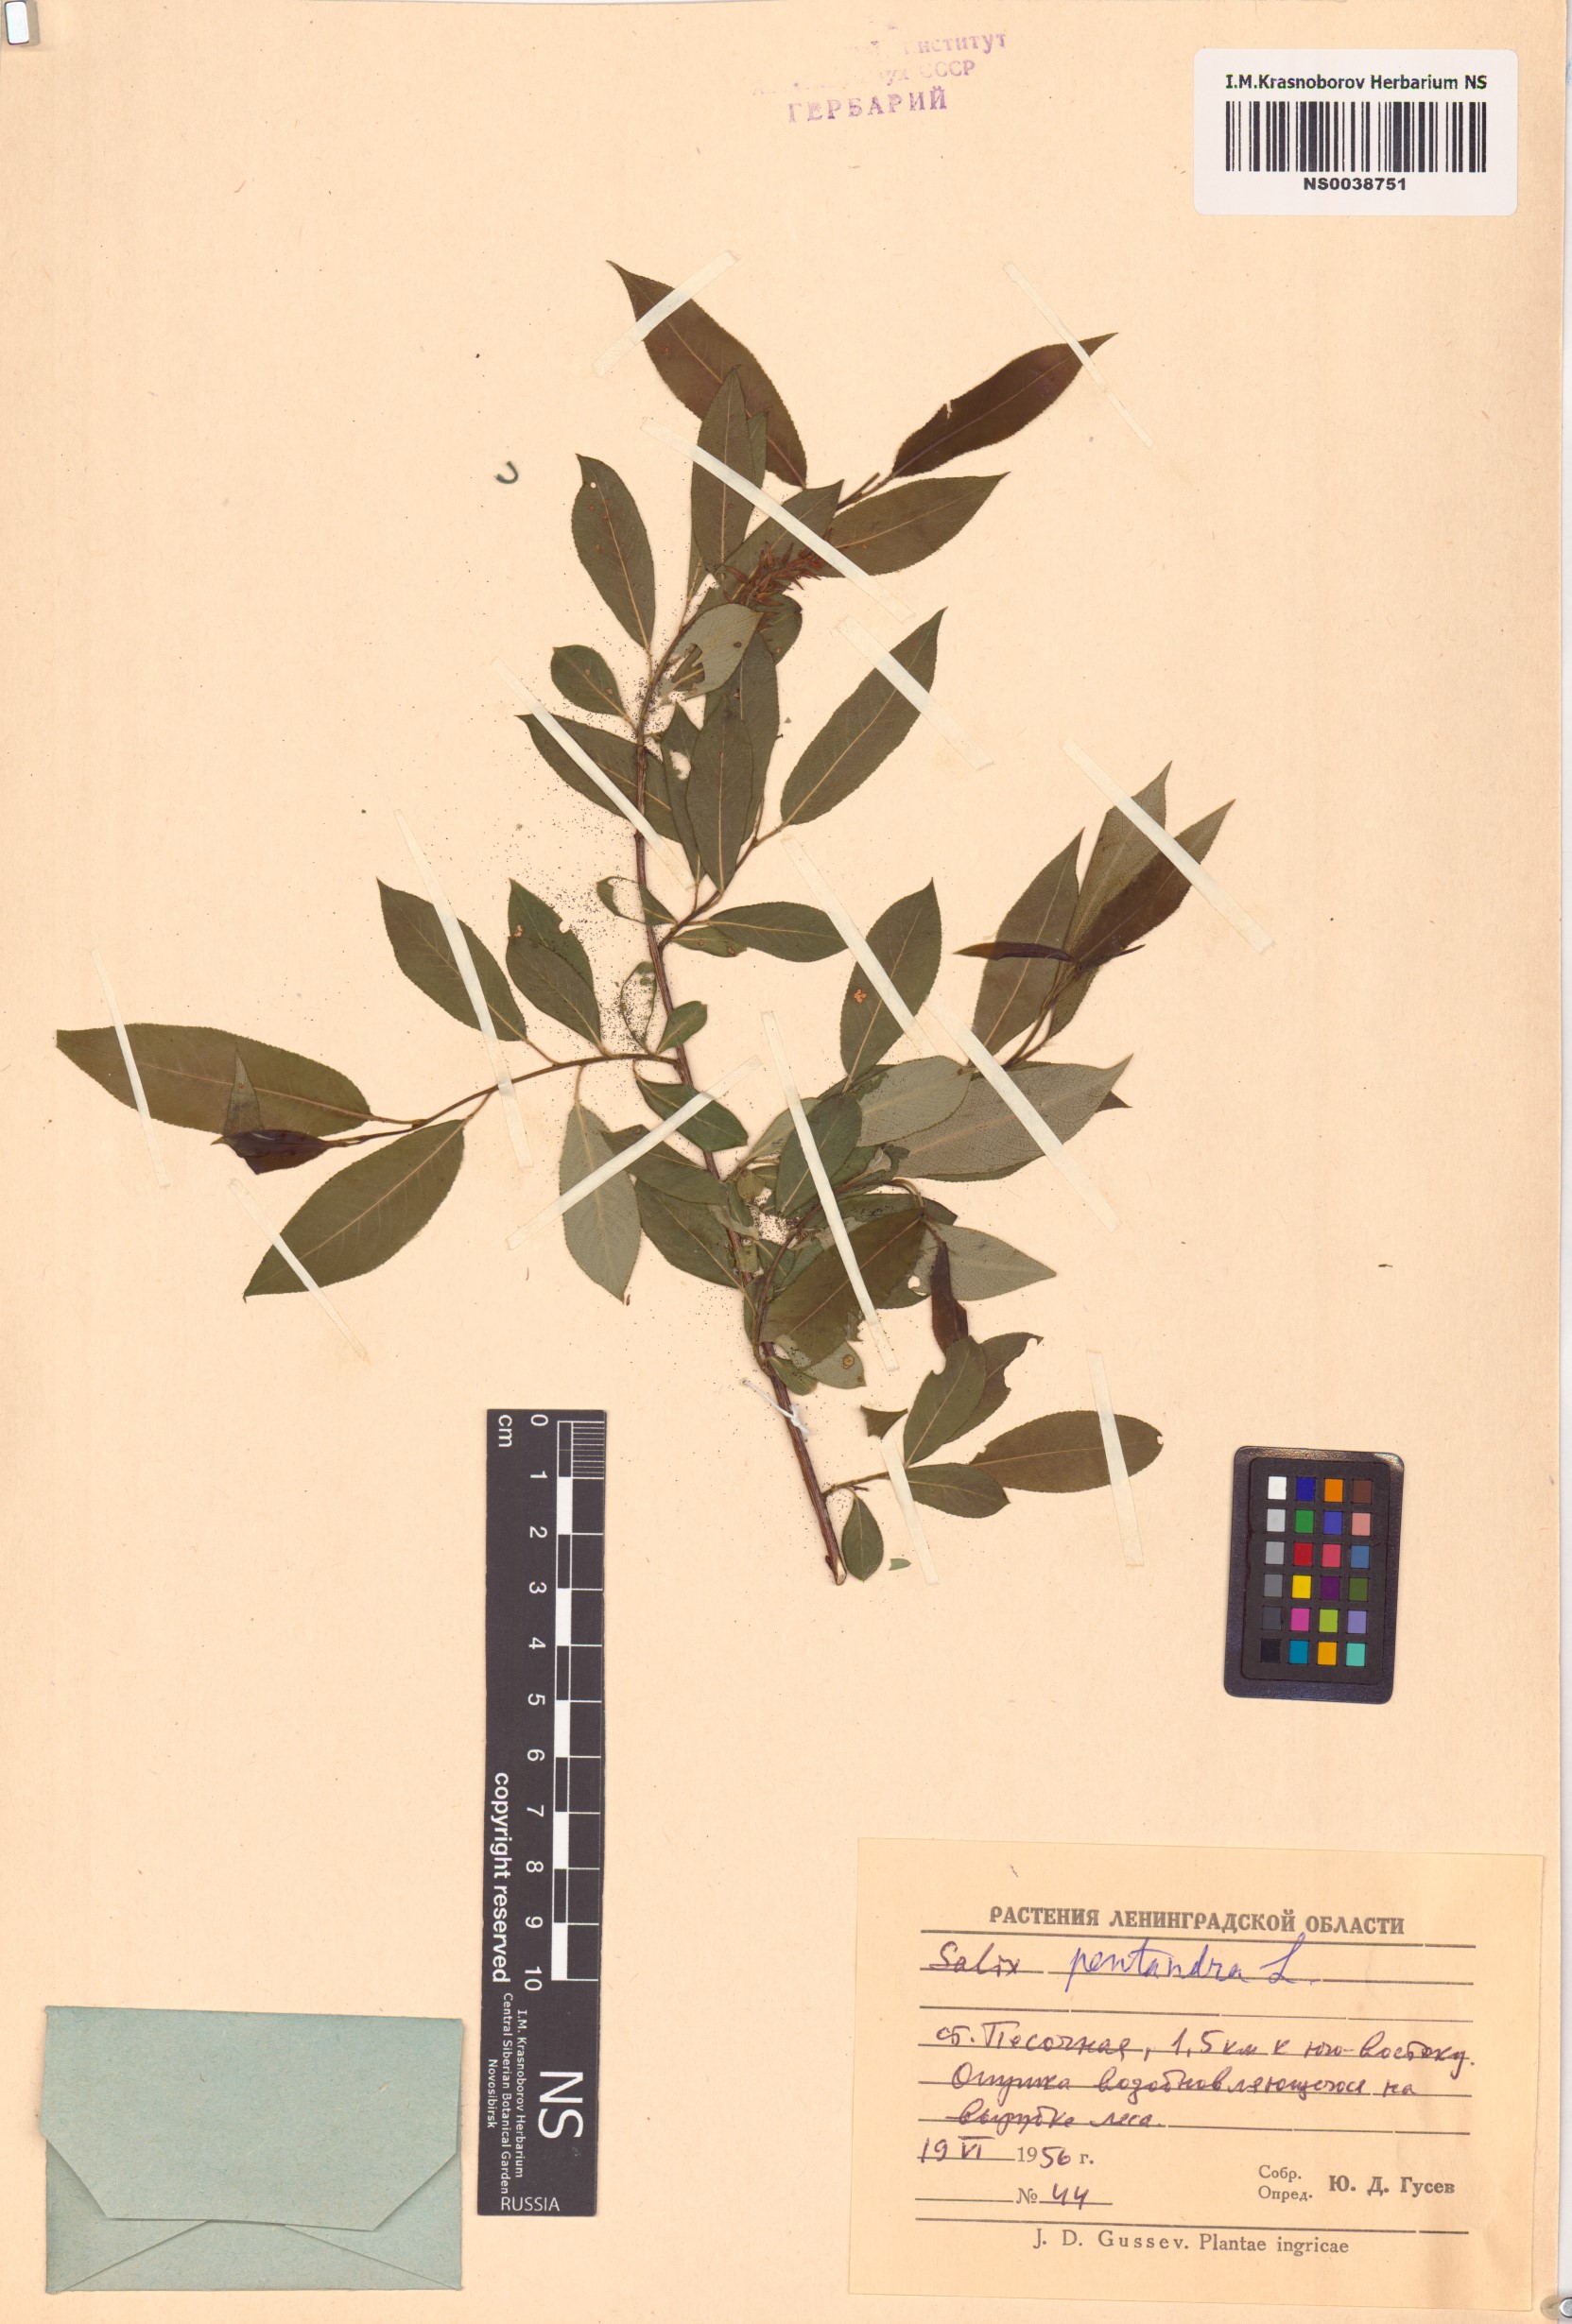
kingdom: Plantae
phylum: Tracheophyta
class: Magnoliopsida
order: Malpighiales
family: Salicaceae
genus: Salix
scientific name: Salix pentandra
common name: Bay willow
